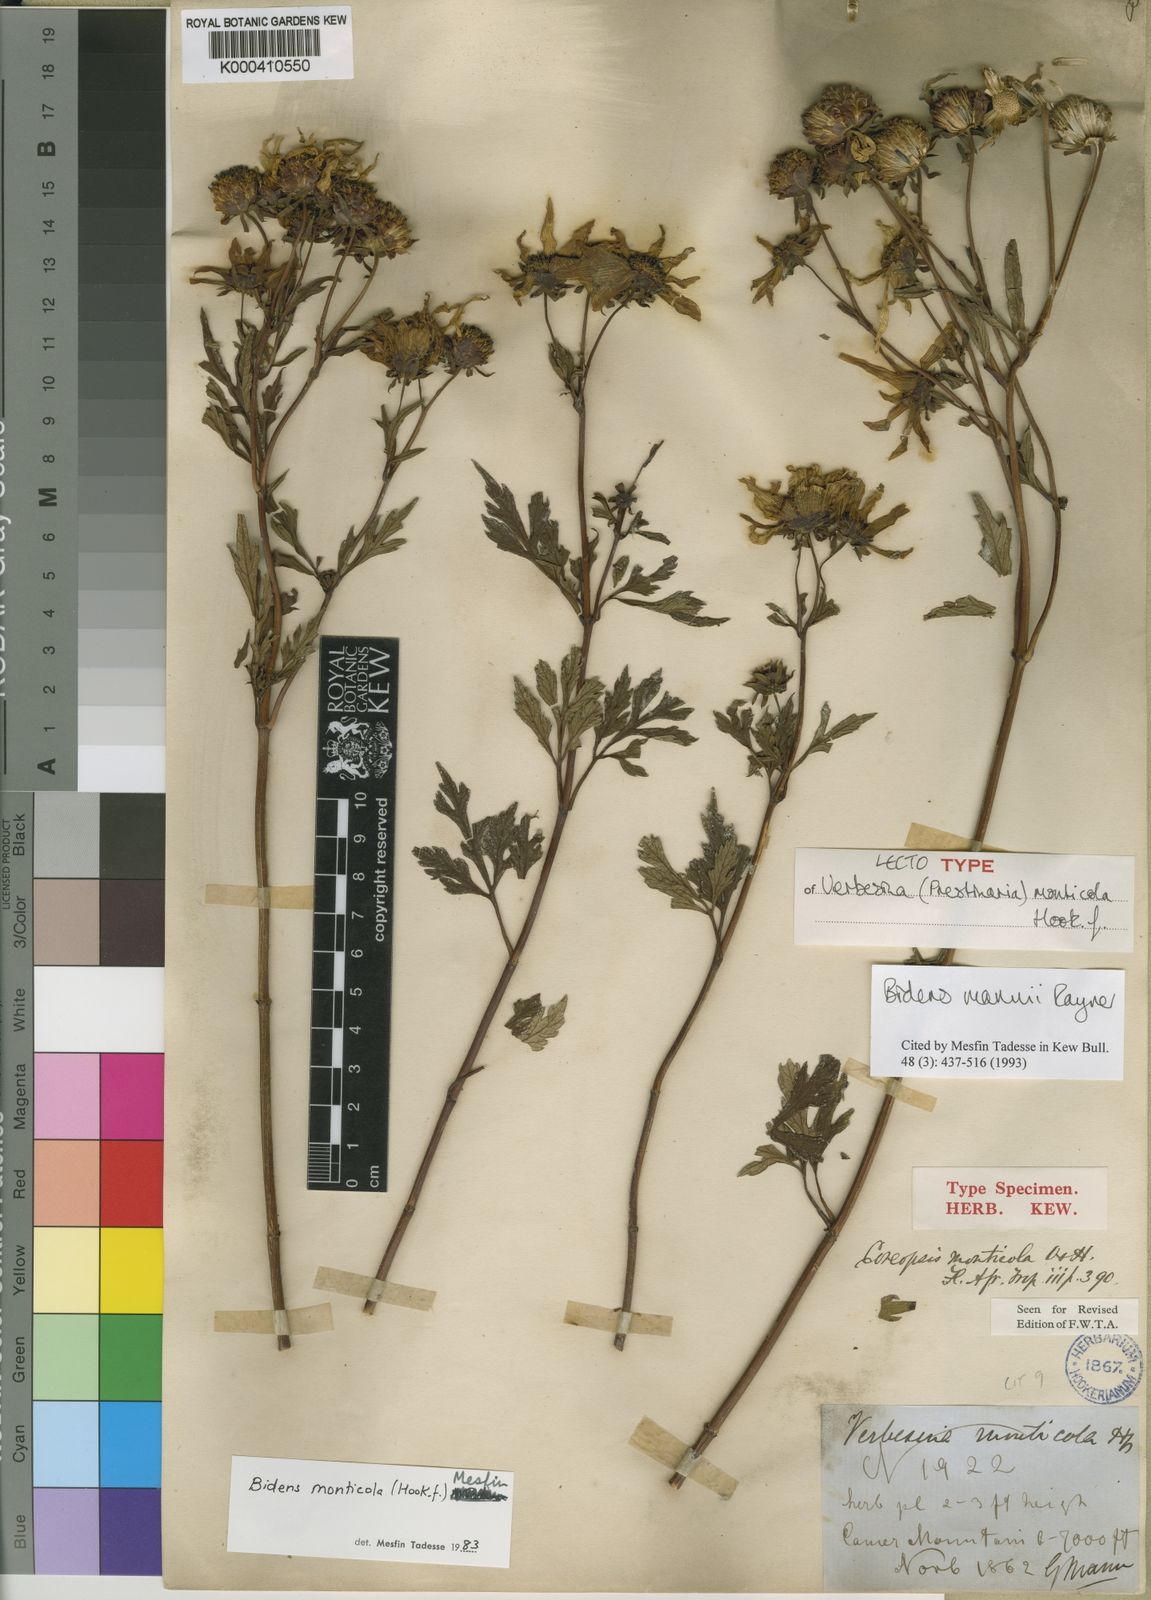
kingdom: Plantae
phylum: Tracheophyta
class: Magnoliopsida
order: Asterales
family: Asteraceae
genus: Bidens
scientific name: Bidens mannii
